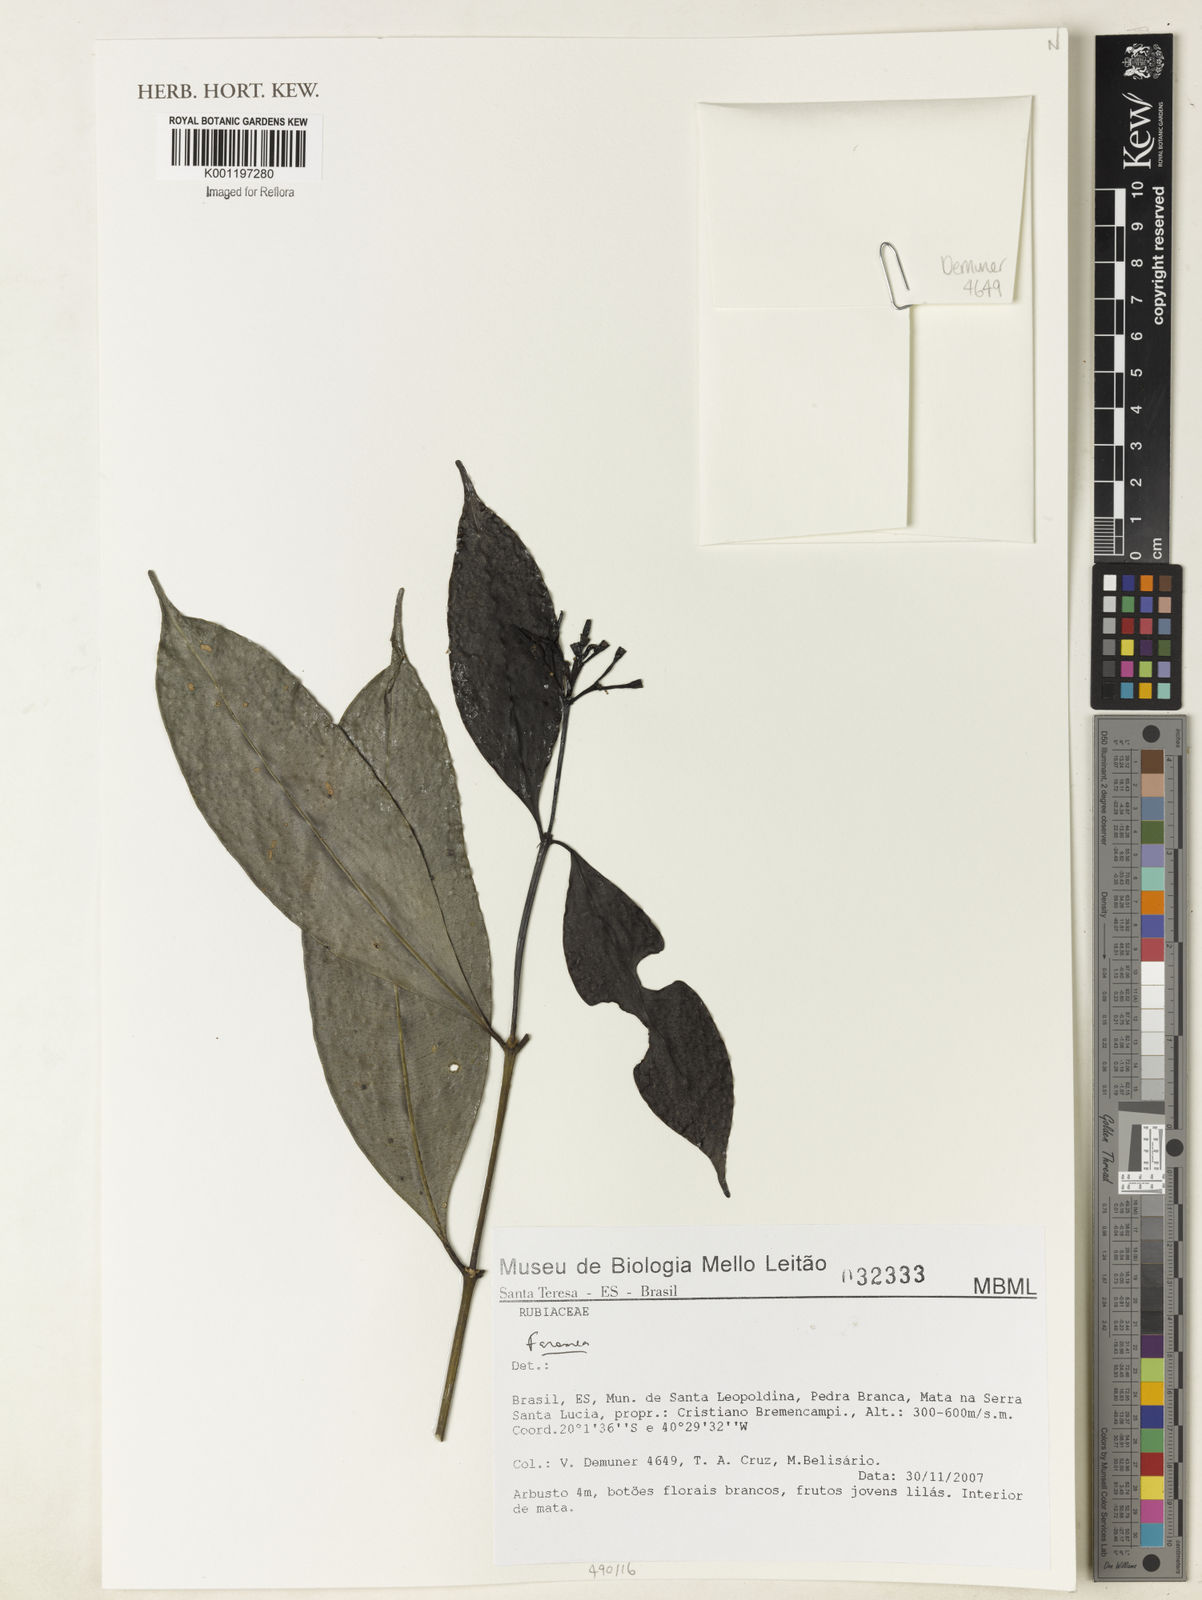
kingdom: Plantae
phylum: Tracheophyta
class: Magnoliopsida
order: Gentianales
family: Rubiaceae
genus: Faramea
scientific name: Faramea
